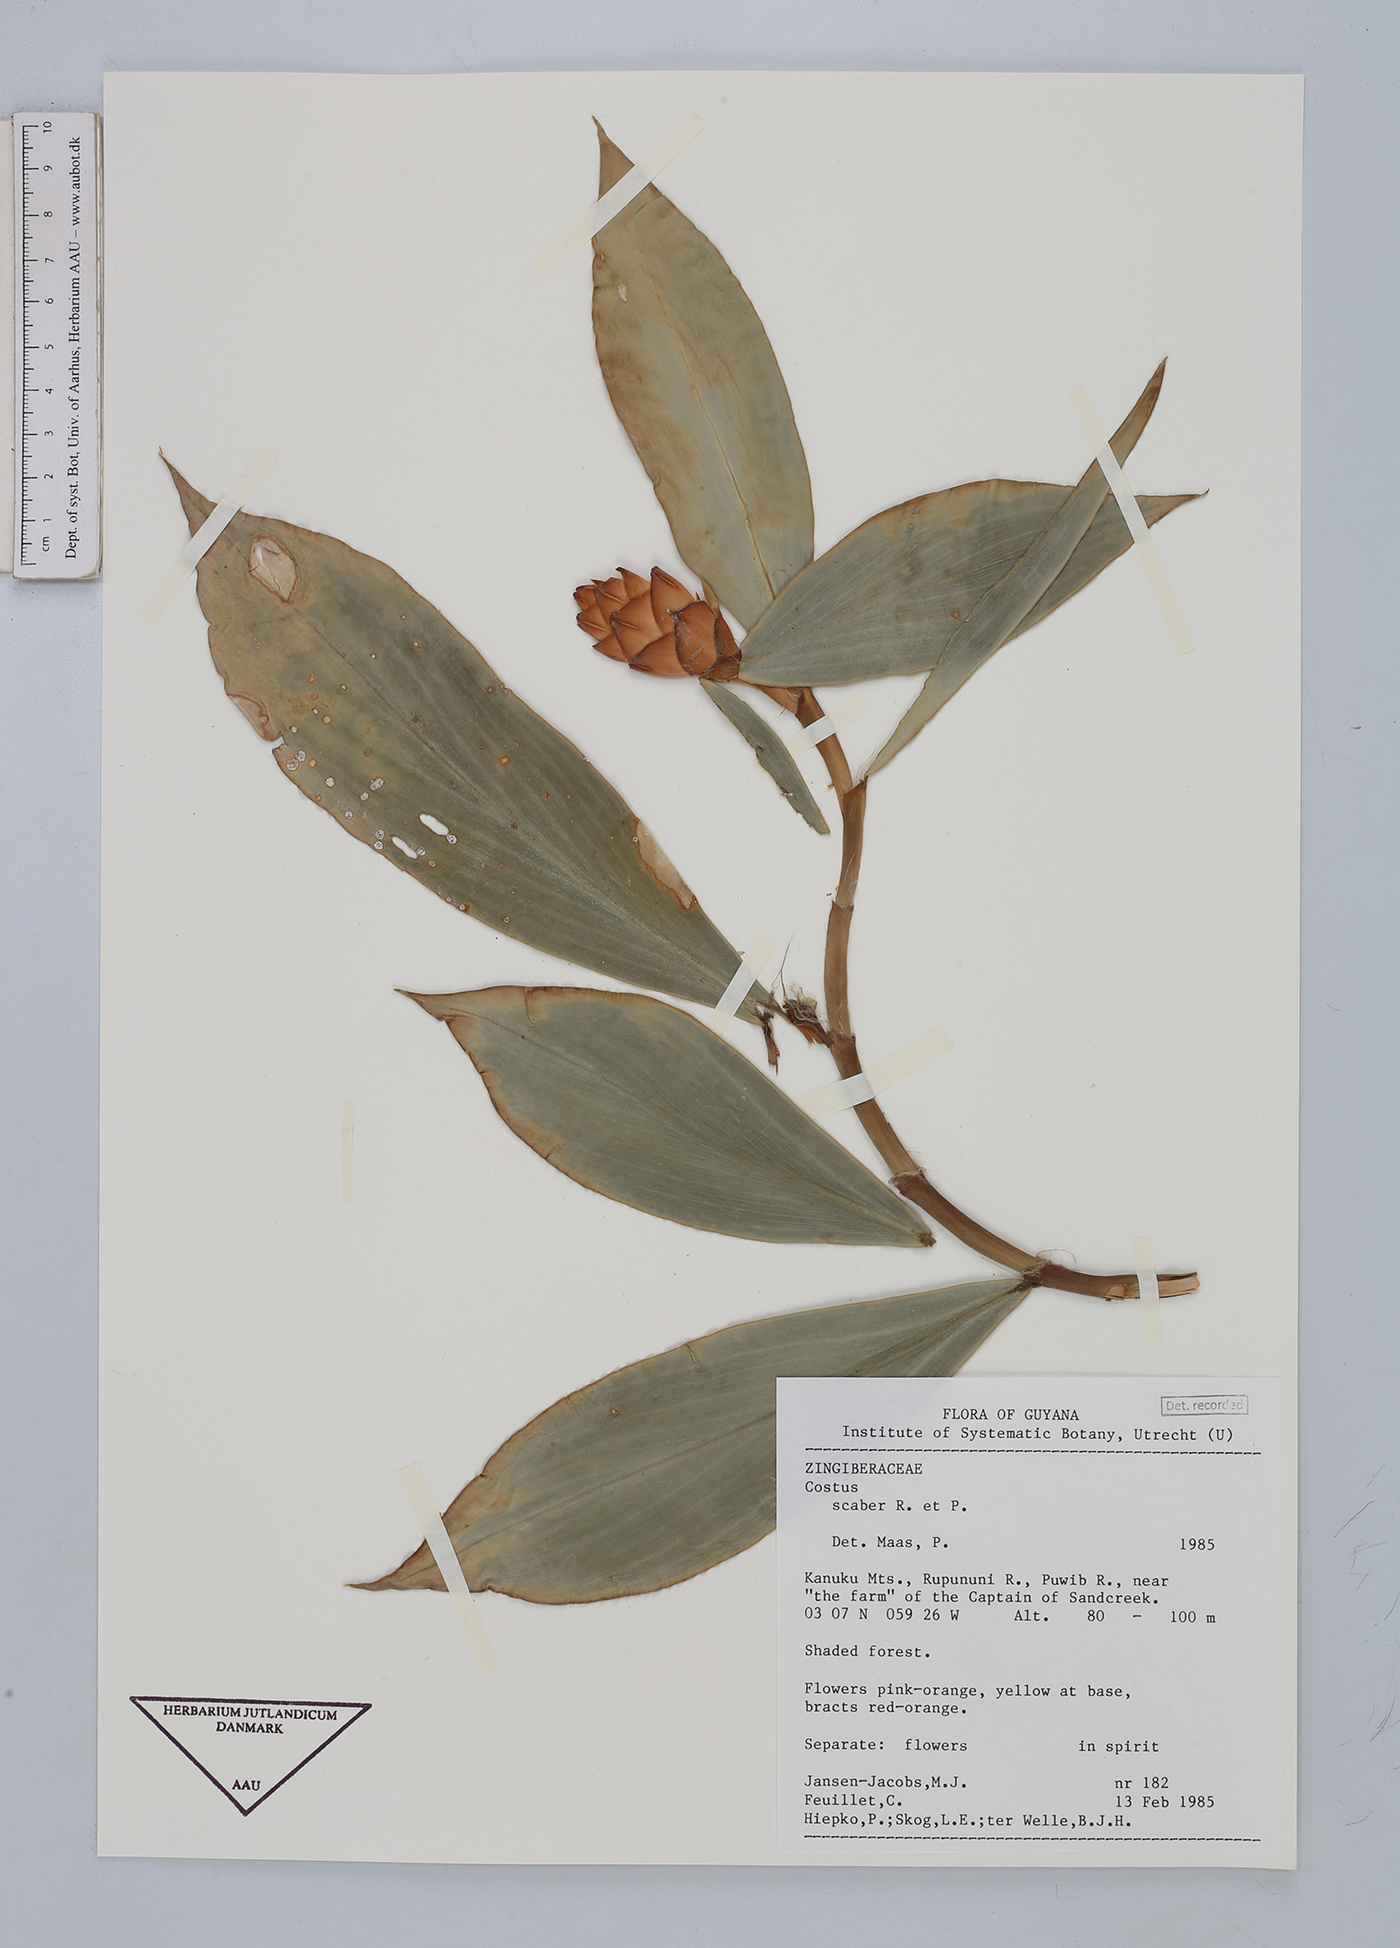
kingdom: Plantae
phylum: Tracheophyta
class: Liliopsida
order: Zingiberales
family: Costaceae
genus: Costus
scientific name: Costus scaber
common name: Spiral head ginger
